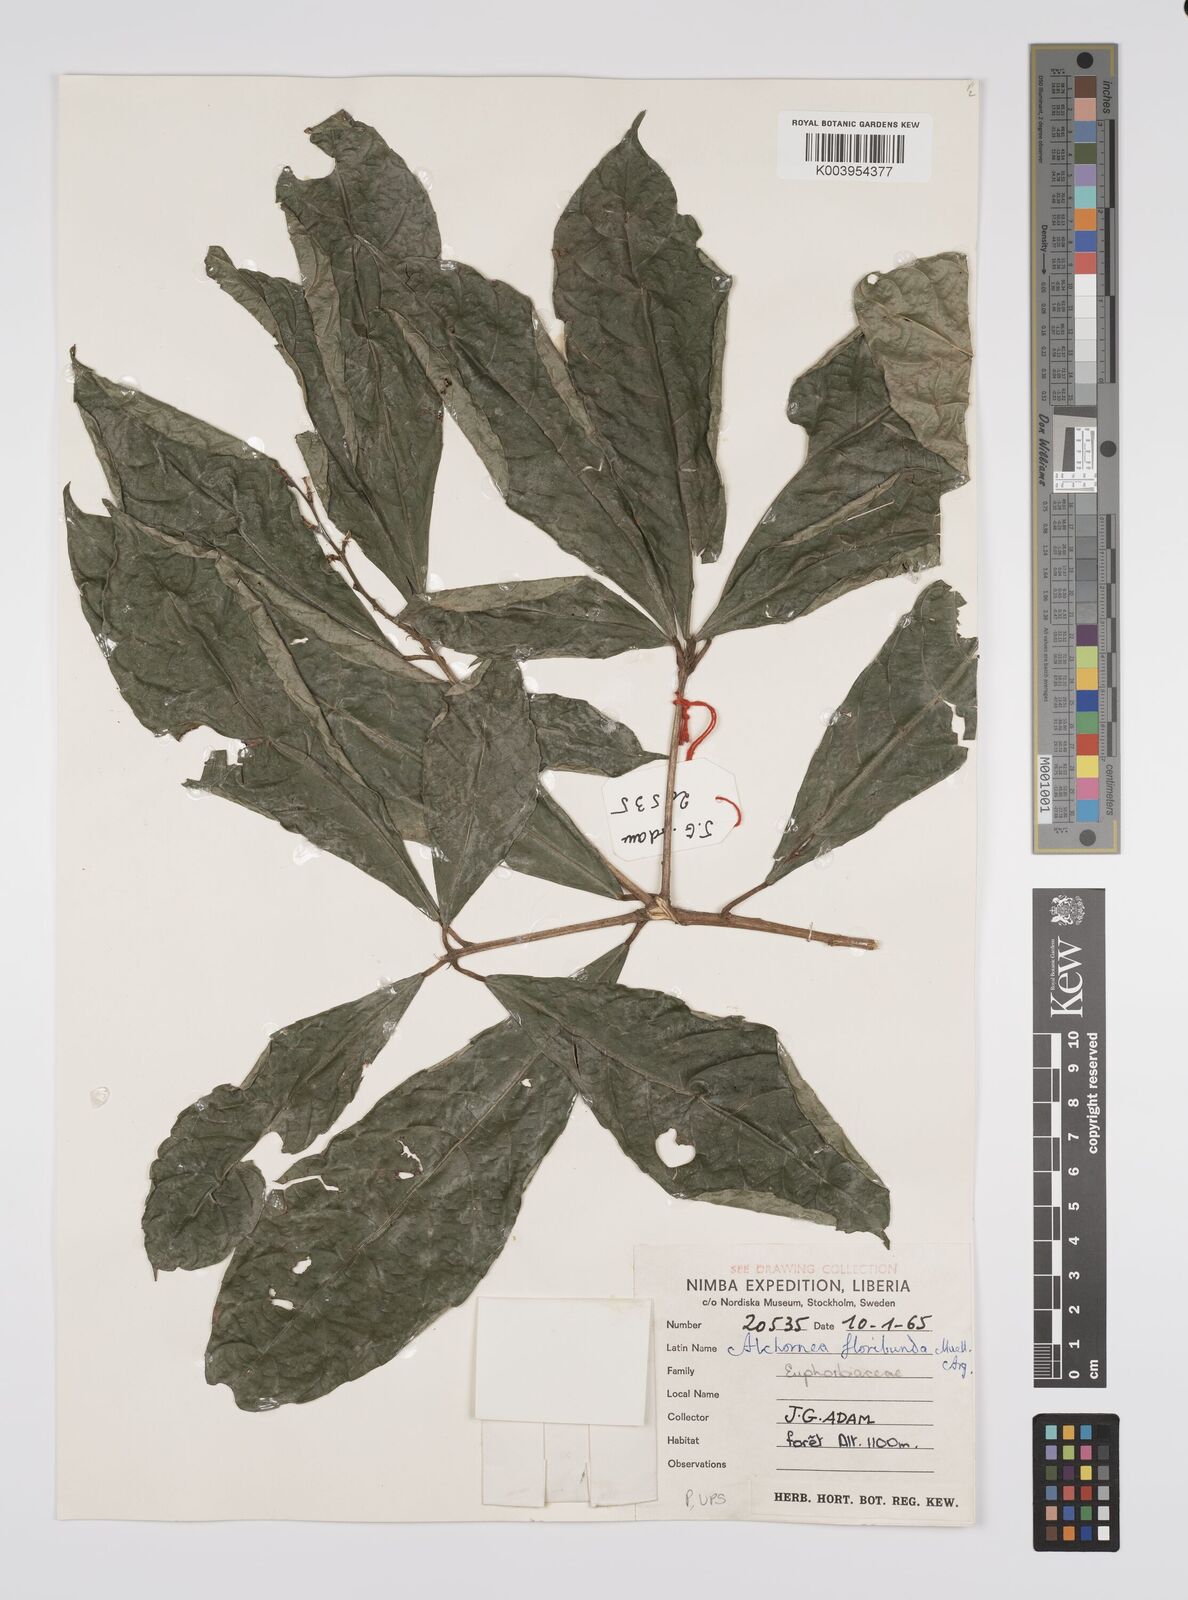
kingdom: Plantae
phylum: Tracheophyta
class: Magnoliopsida
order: Malpighiales
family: Euphorbiaceae
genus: Alchornea
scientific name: Alchornea floribunda
